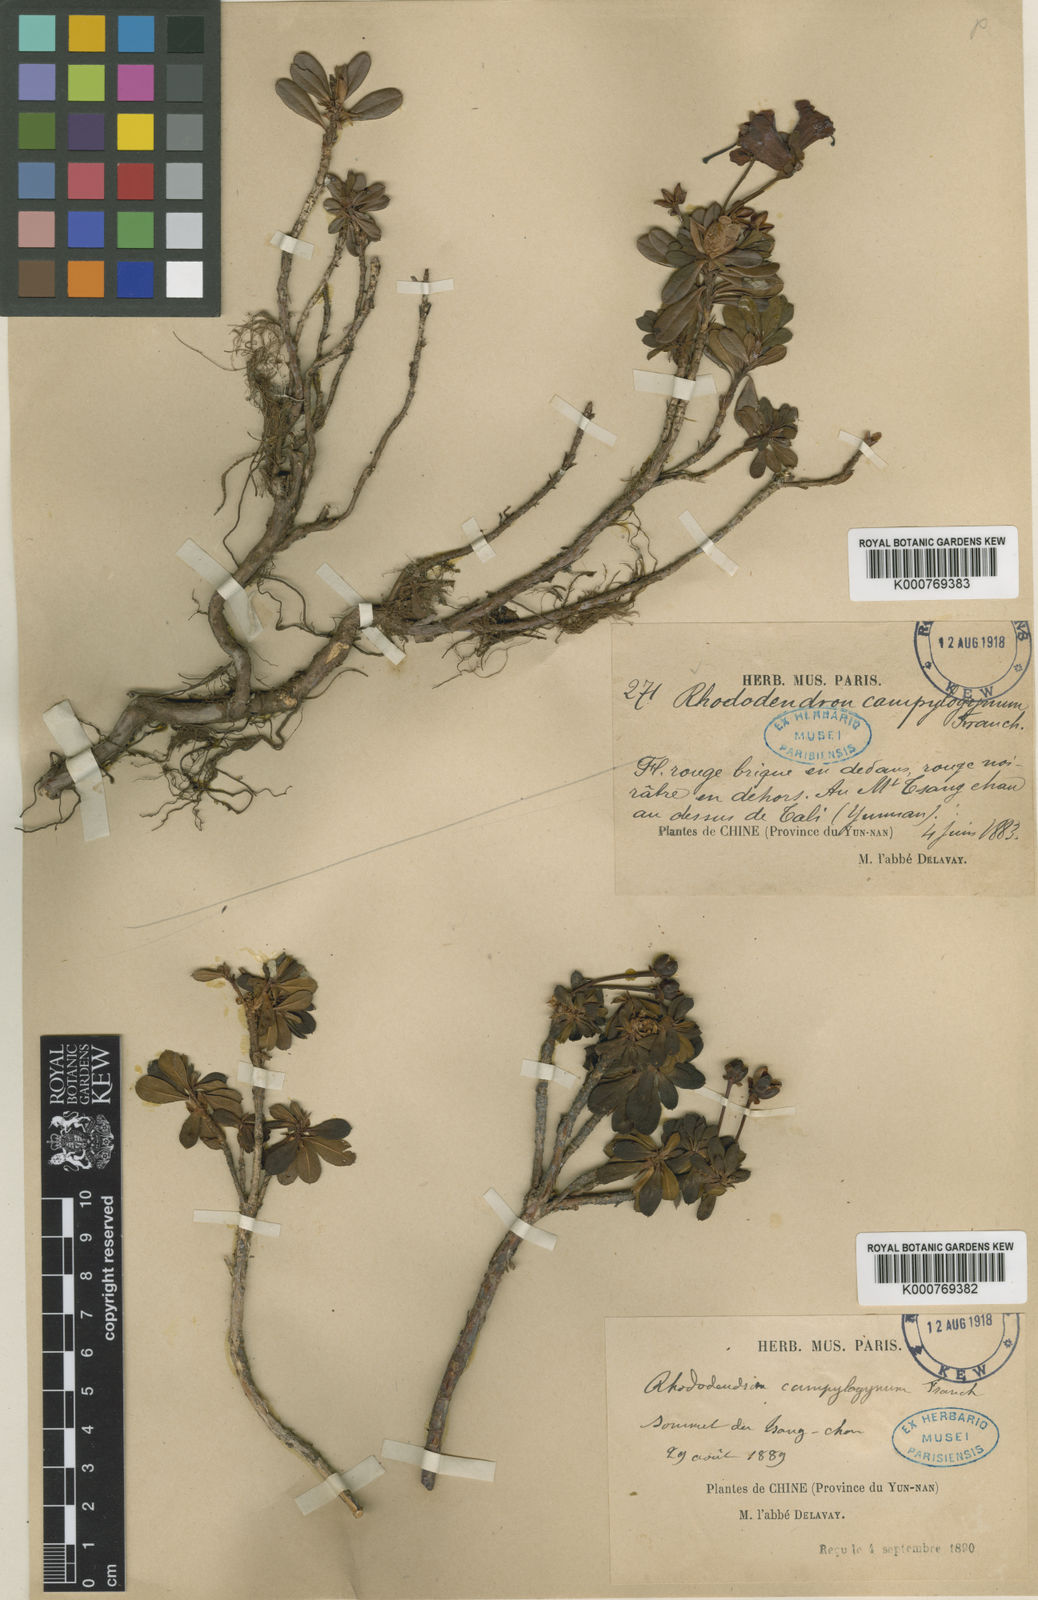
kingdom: Plantae
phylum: Tracheophyta
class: Magnoliopsida
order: Ericales
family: Ericaceae
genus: Rhododendron
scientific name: Rhododendron campylogynum
